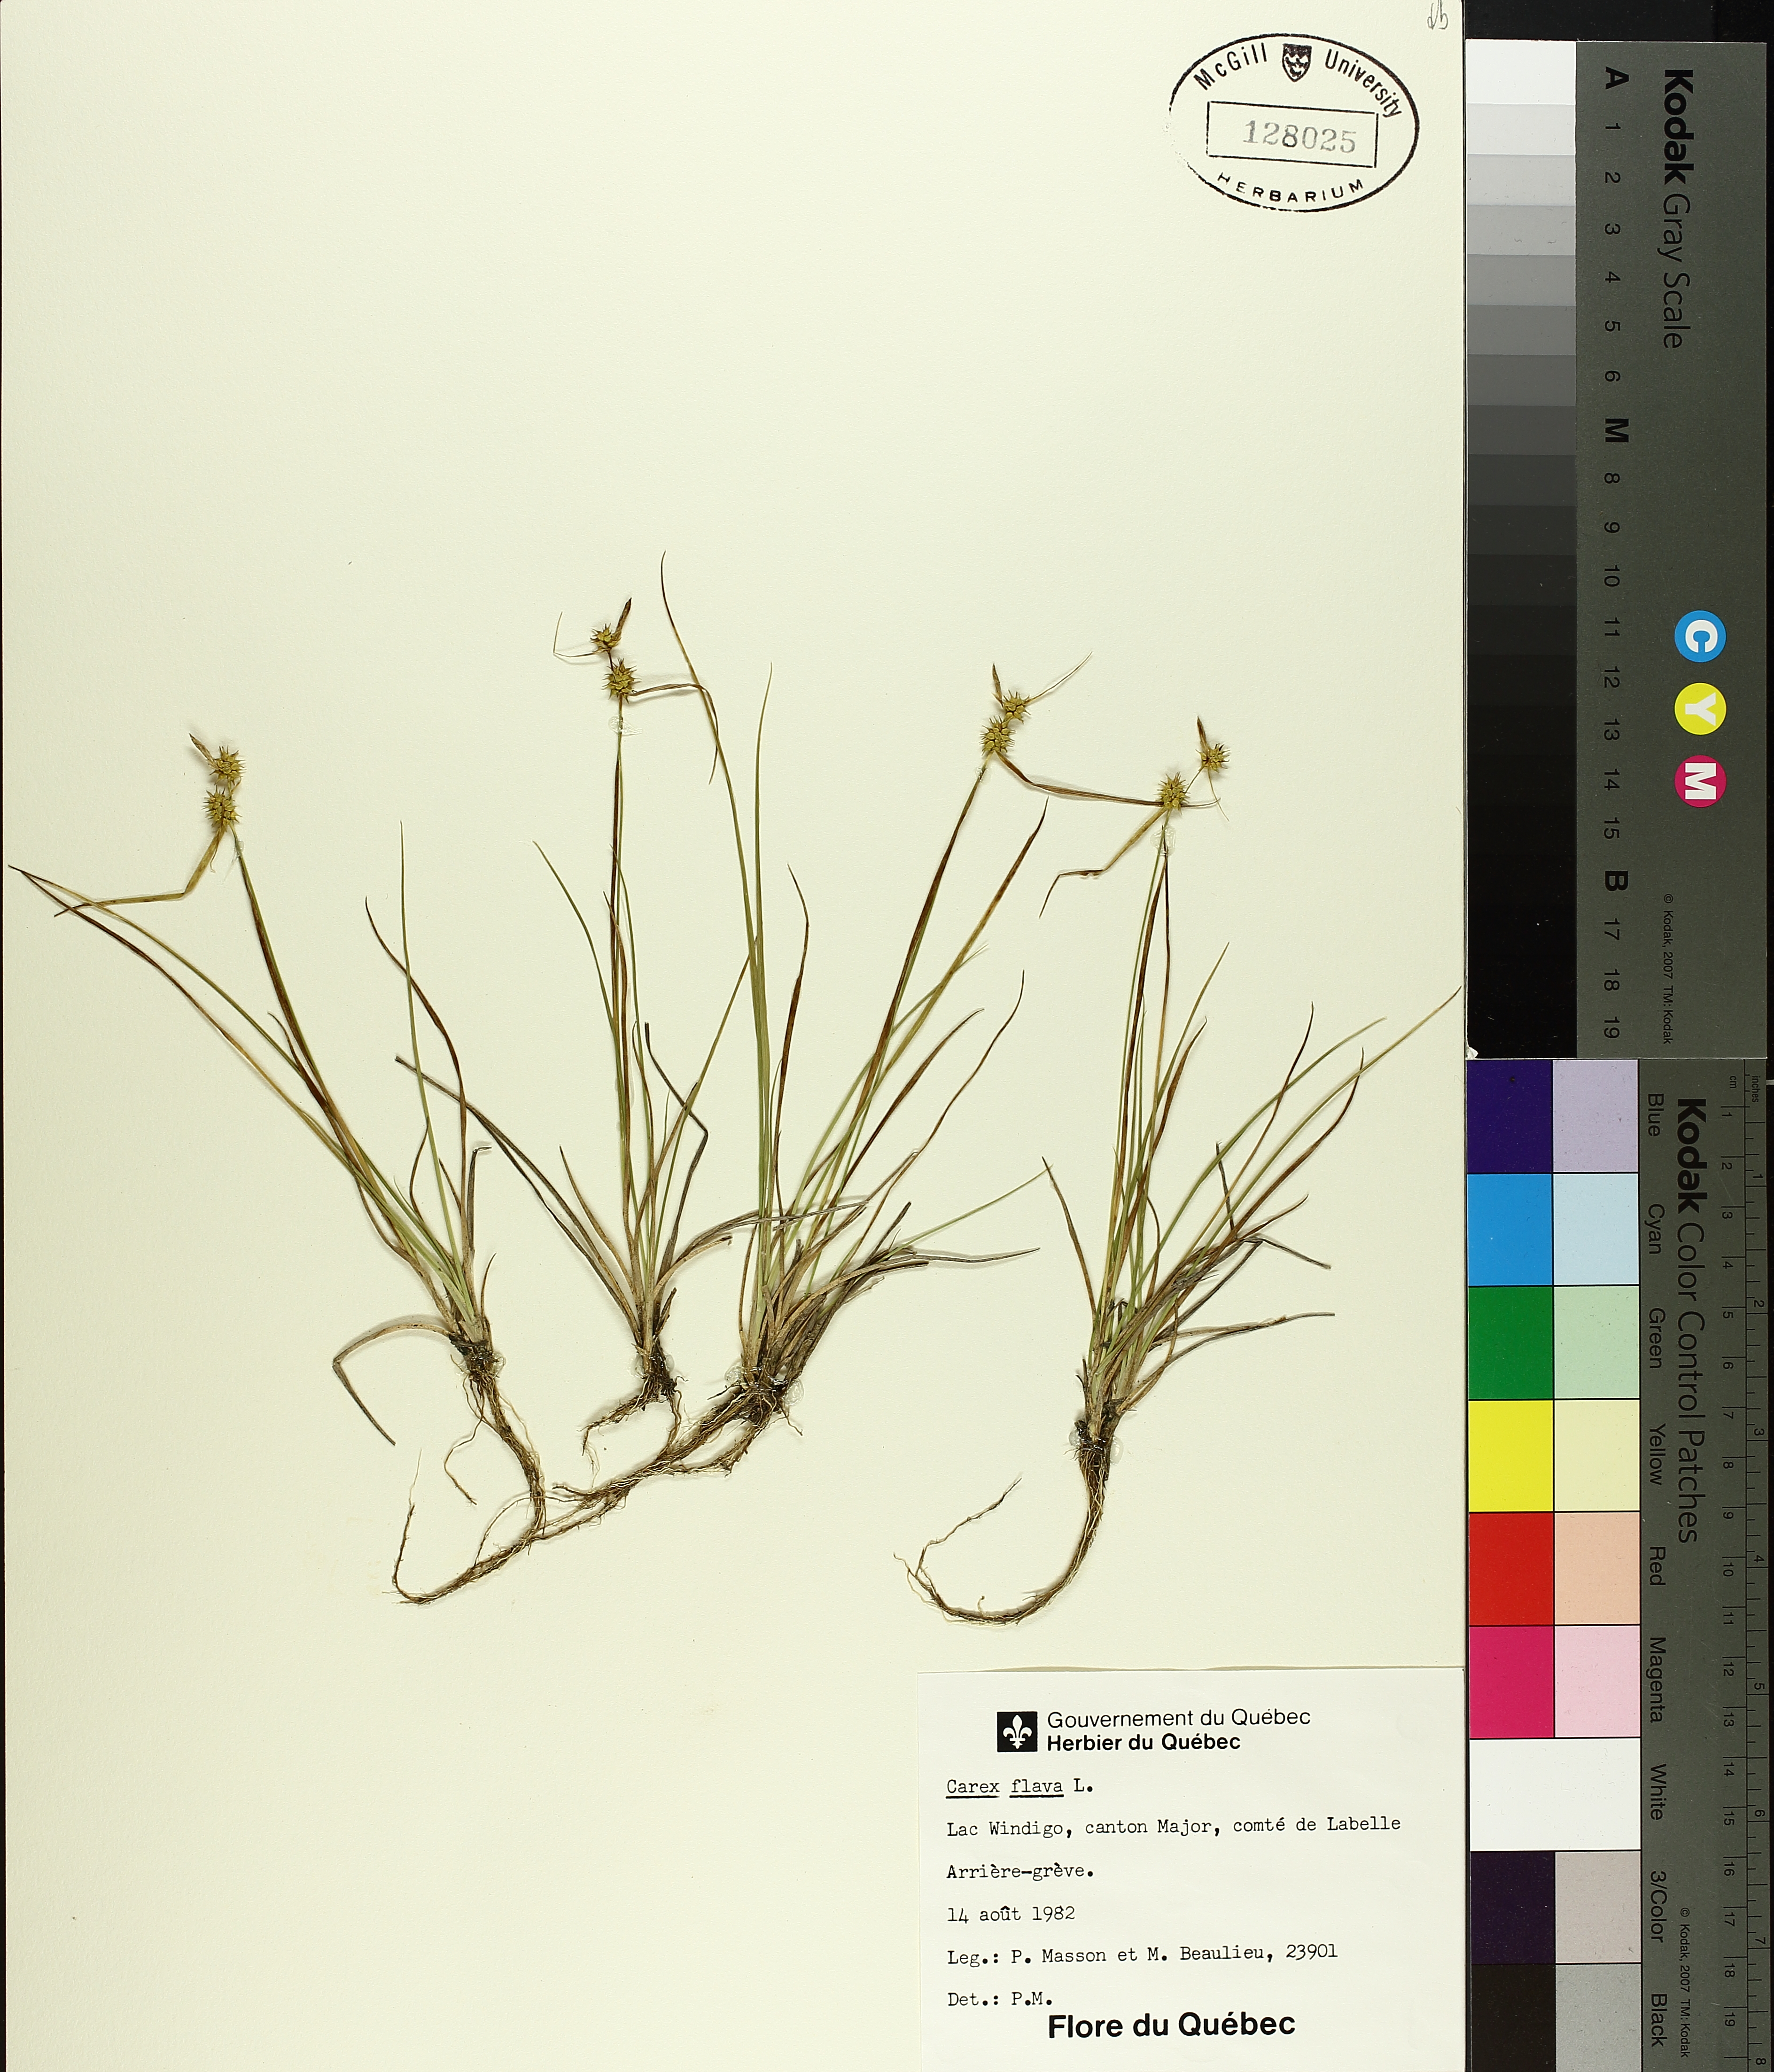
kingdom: Plantae
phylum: Tracheophyta
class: Liliopsida
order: Poales
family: Cyperaceae
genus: Carex
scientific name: Carex flava
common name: Large yellow-sedge
